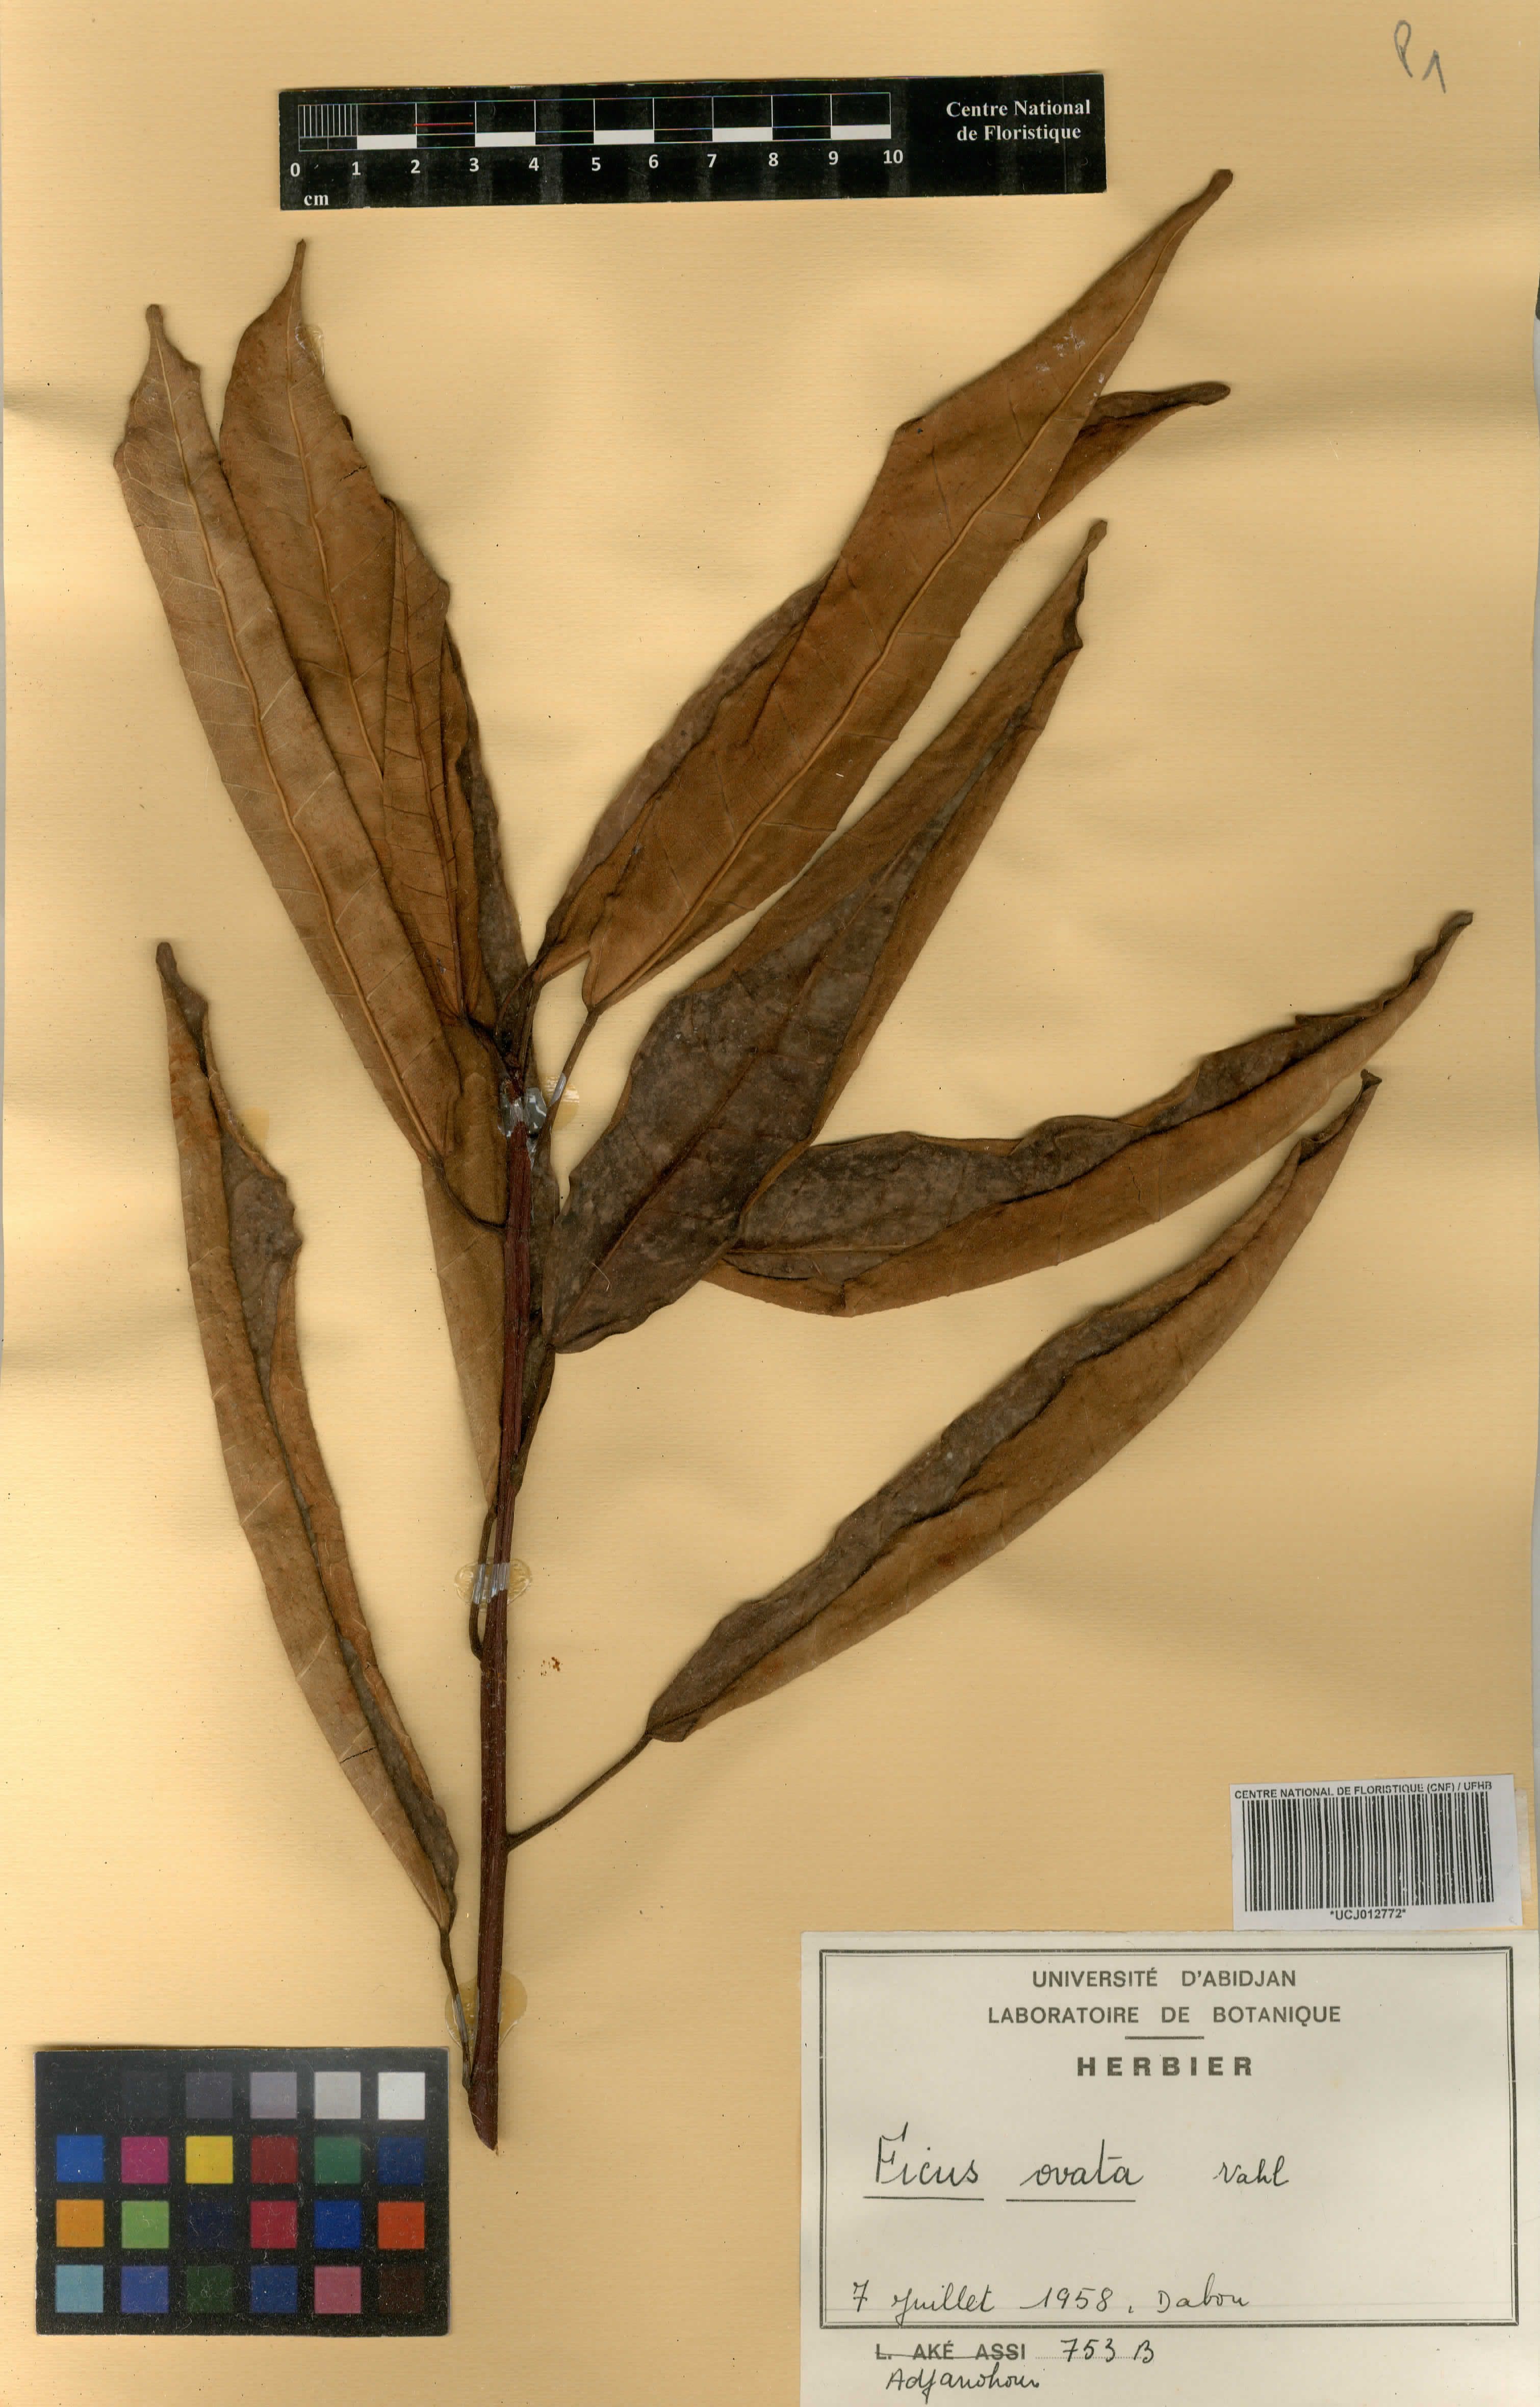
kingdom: Plantae
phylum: Tracheophyta
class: Magnoliopsida
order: Rosales
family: Moraceae
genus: Ficus
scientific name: Ficus laurifolia
